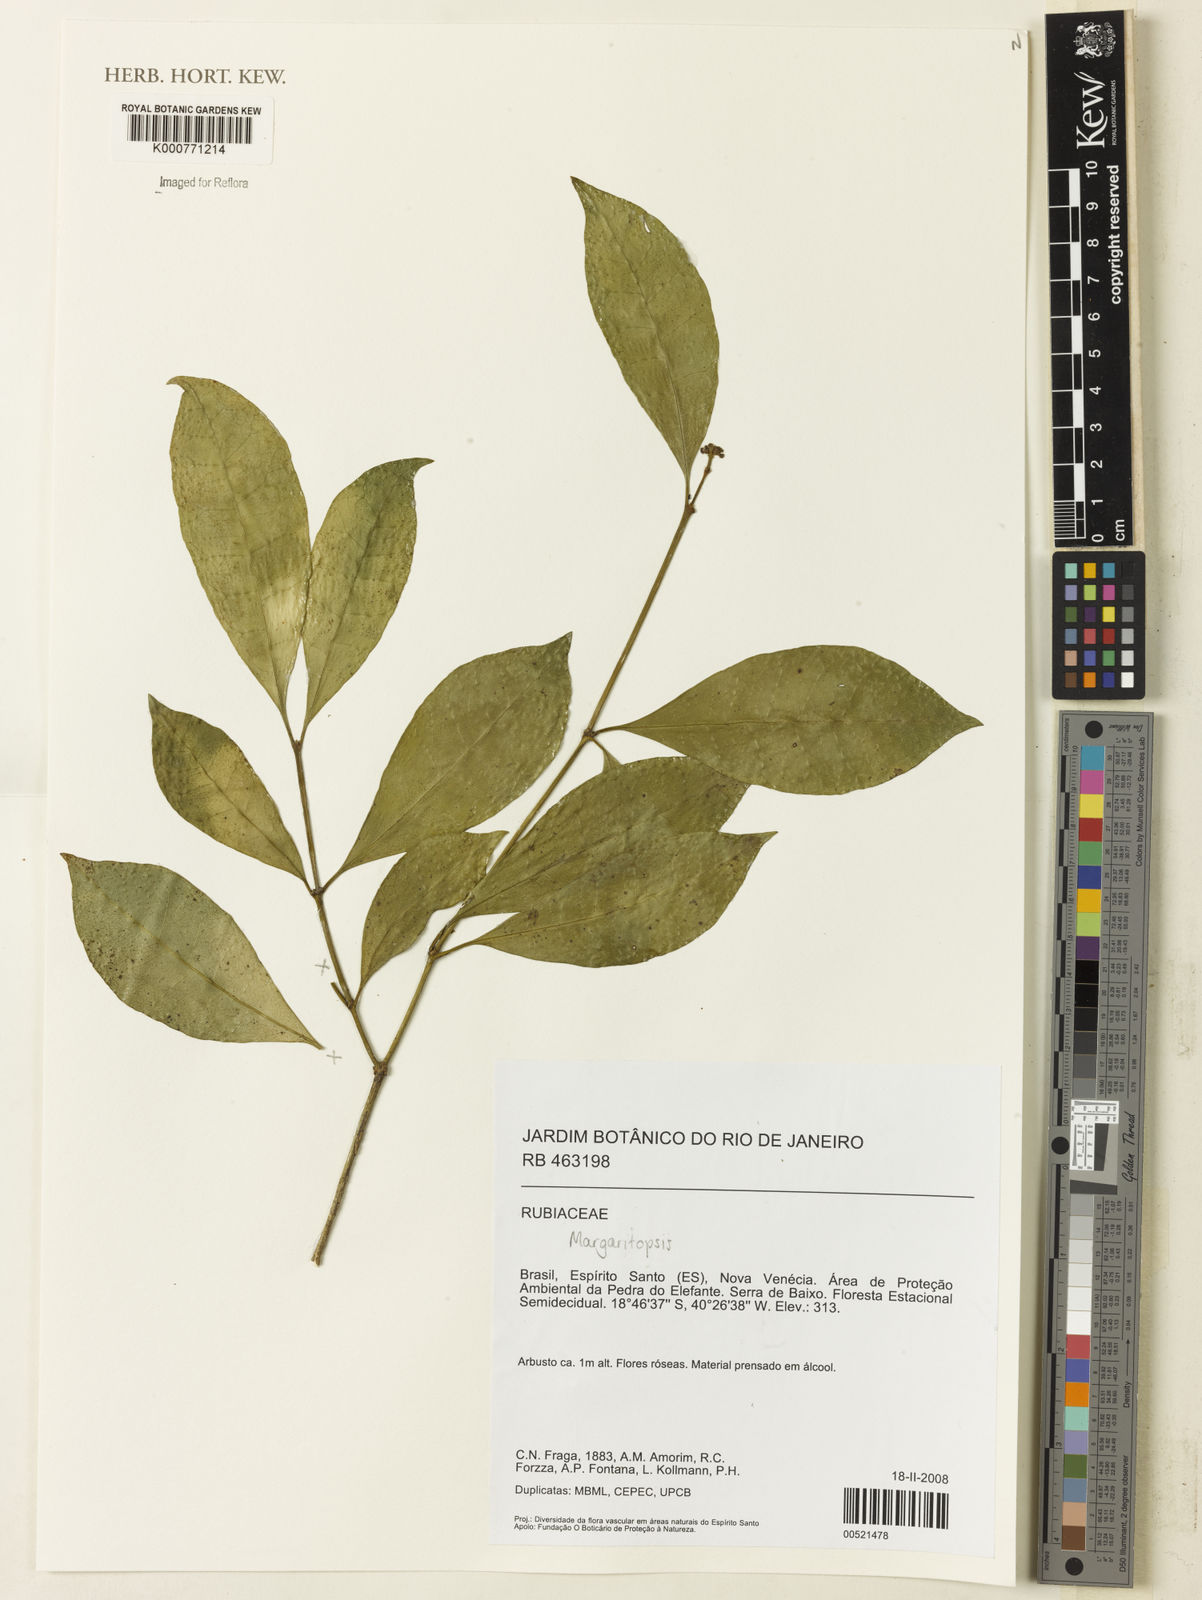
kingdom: Plantae
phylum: Tracheophyta
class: Magnoliopsida
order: Gentianales
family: Rubiaceae
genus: Eumachia
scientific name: Eumachia
